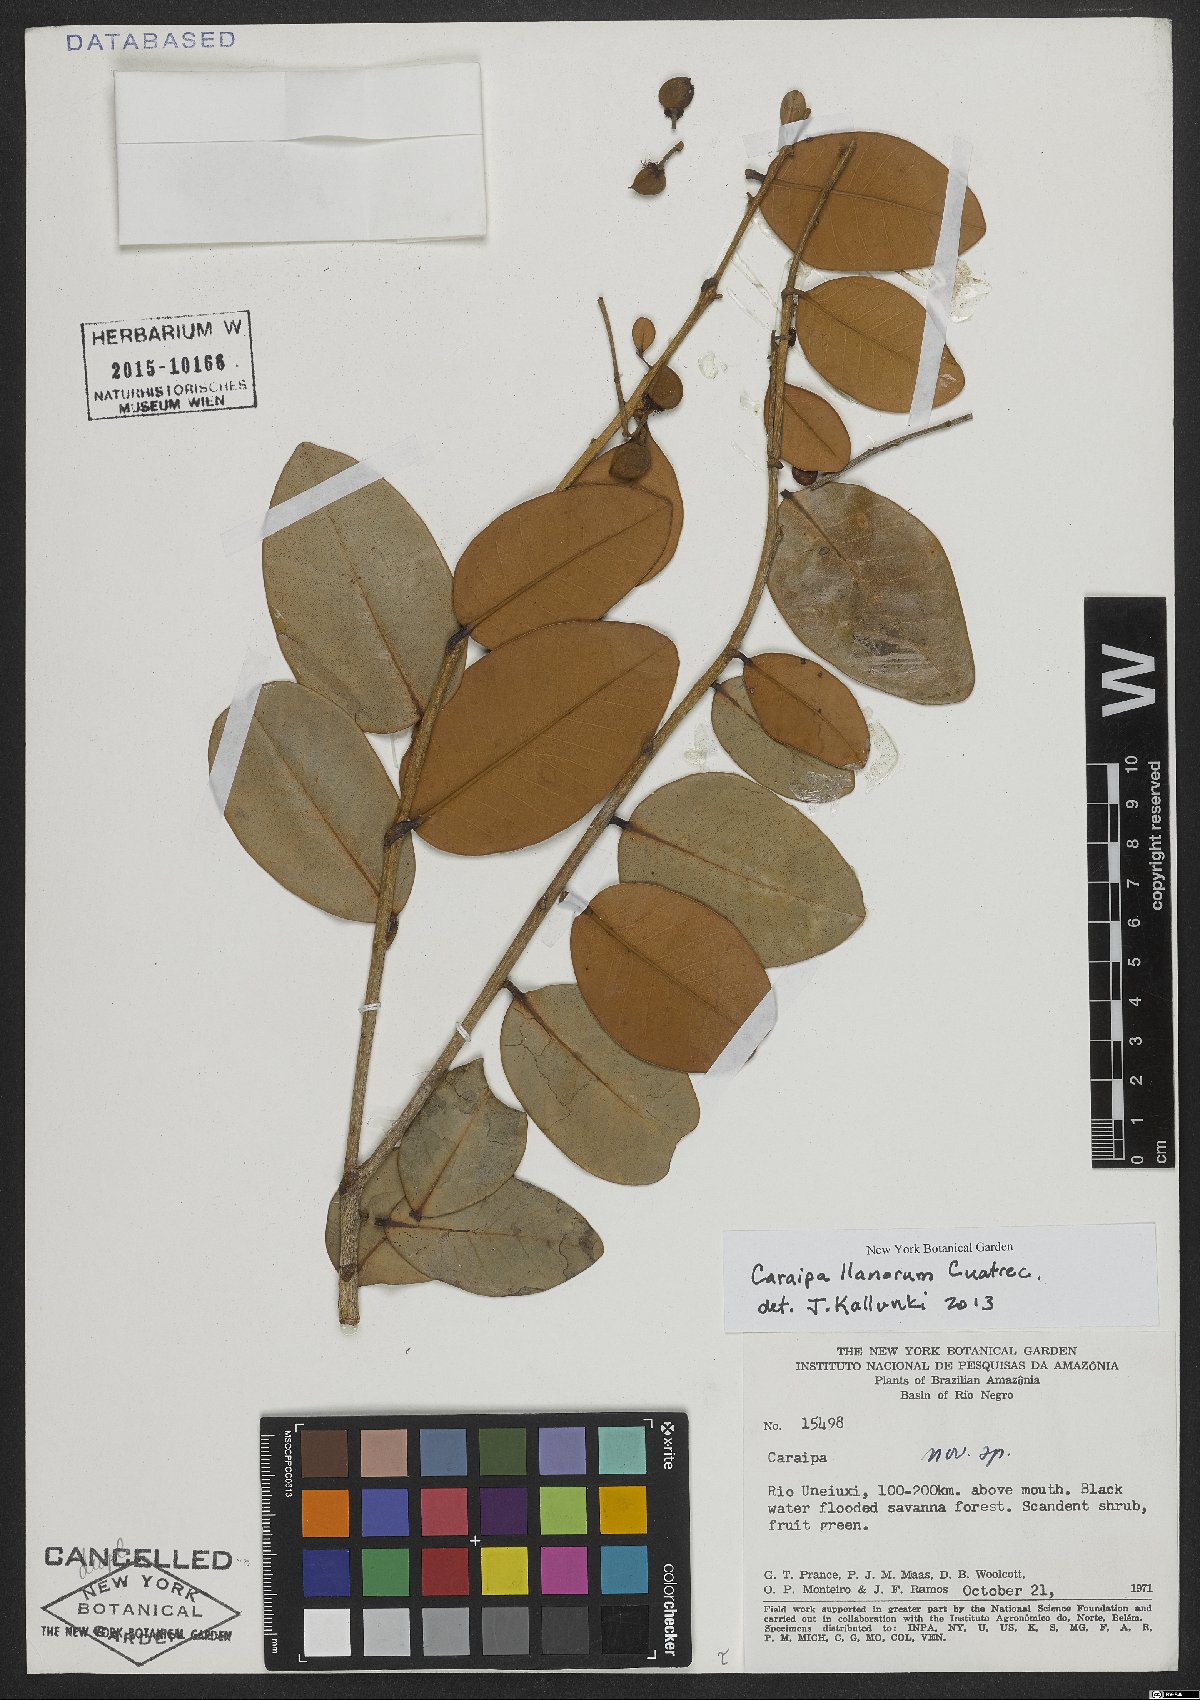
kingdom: Plantae
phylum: Tracheophyta
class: Magnoliopsida
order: Malpighiales
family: Calophyllaceae
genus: Caraipa
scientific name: Caraipa llanorum
